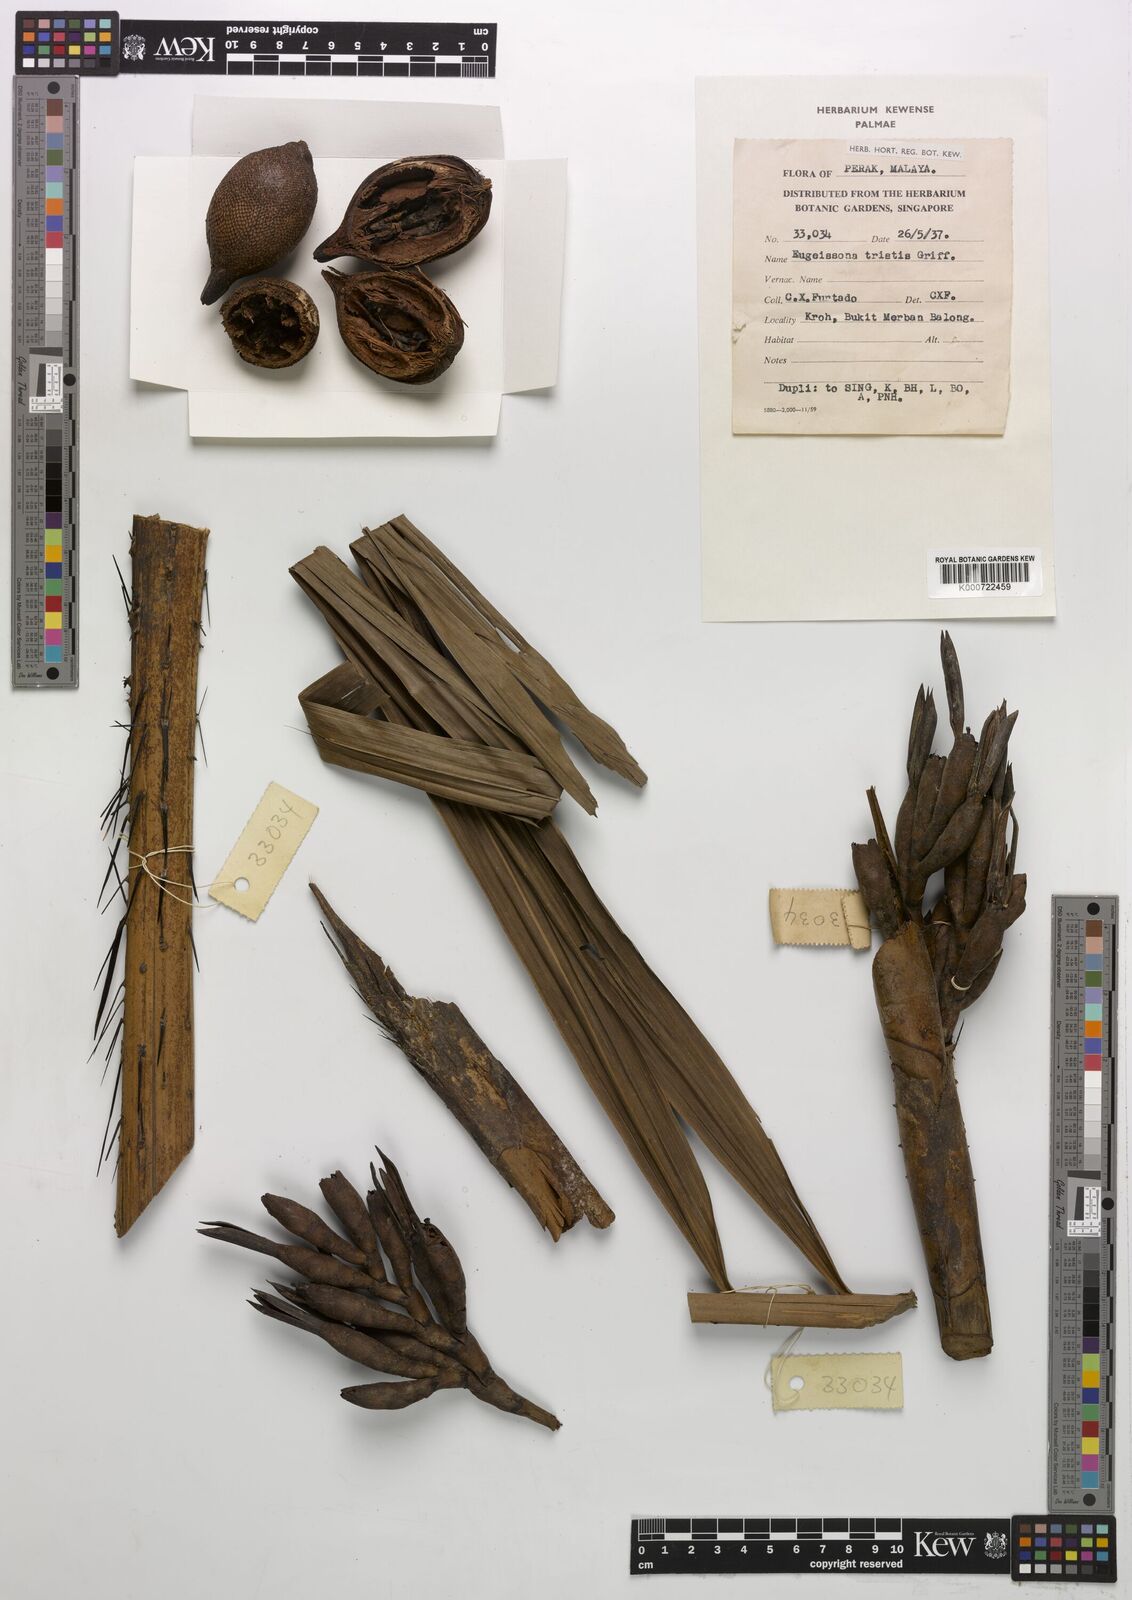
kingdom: Plantae
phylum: Tracheophyta
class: Liliopsida
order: Arecales
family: Arecaceae
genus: Eugeissona
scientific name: Eugeissona tristis
